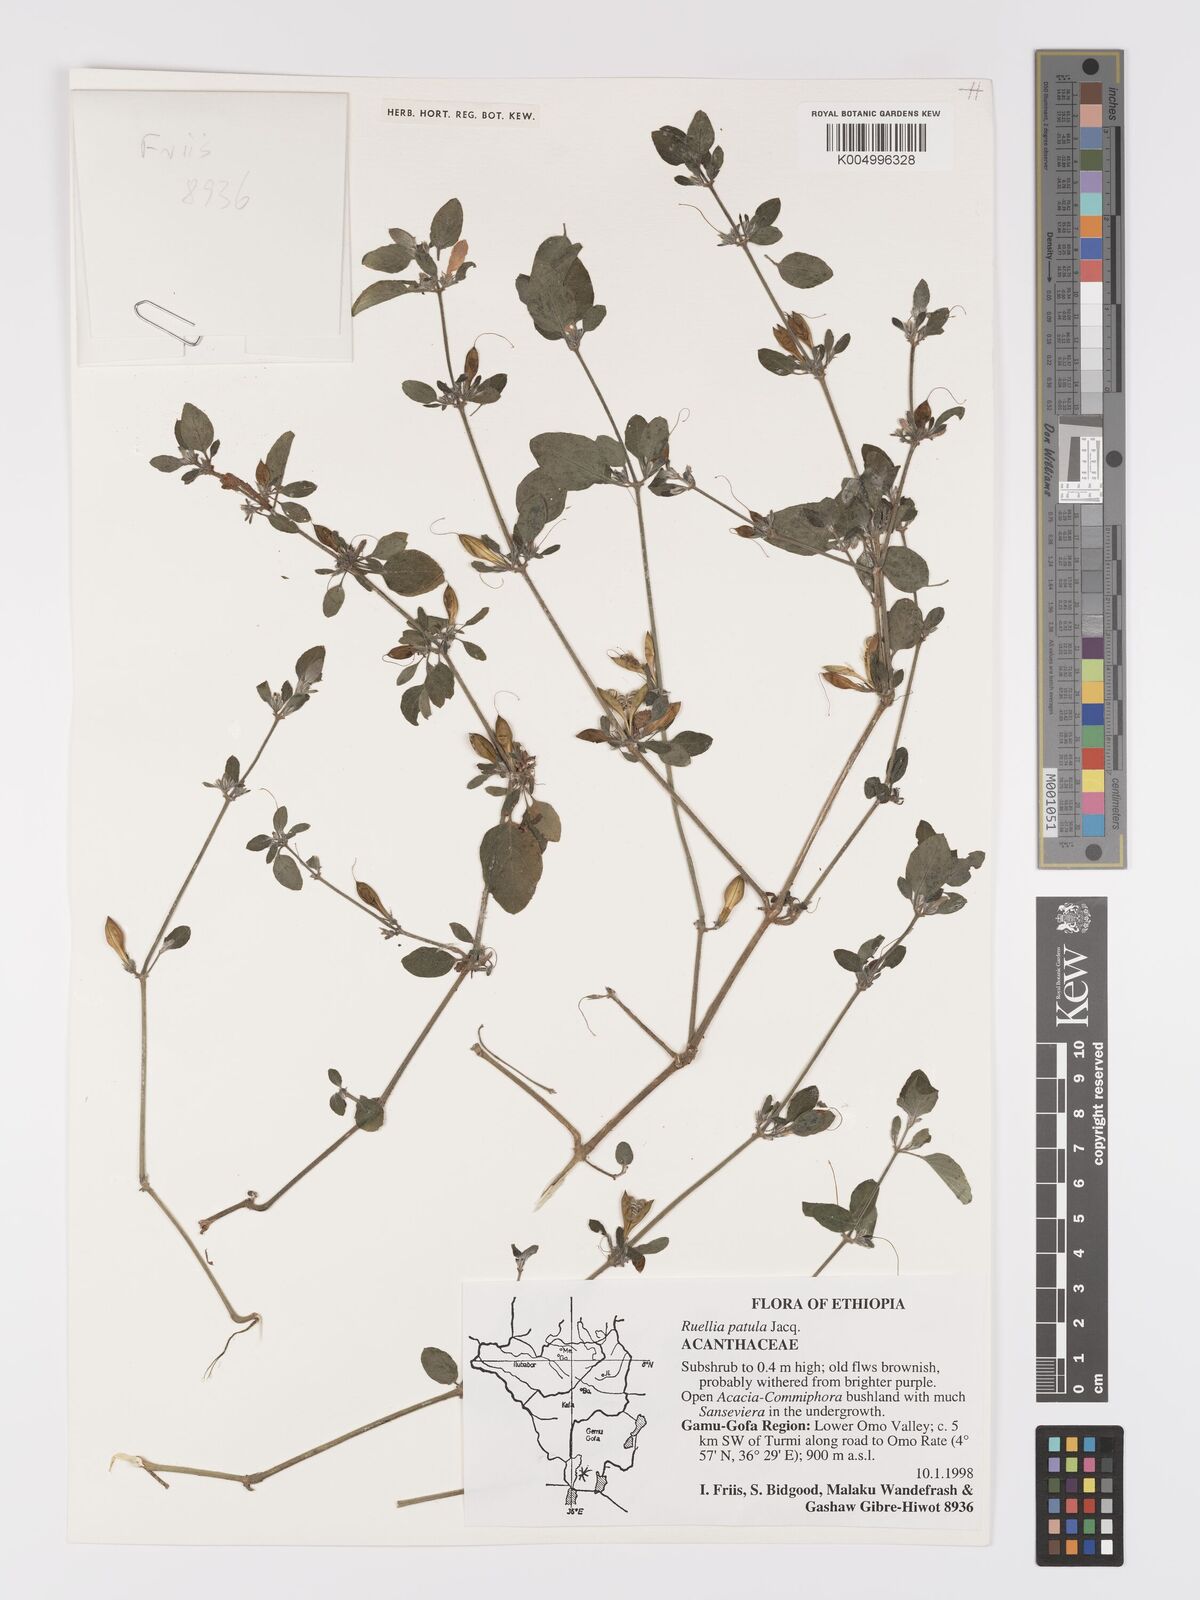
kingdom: Plantae
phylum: Tracheophyta
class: Magnoliopsida
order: Lamiales
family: Acanthaceae
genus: Ruellia
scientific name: Ruellia patula
